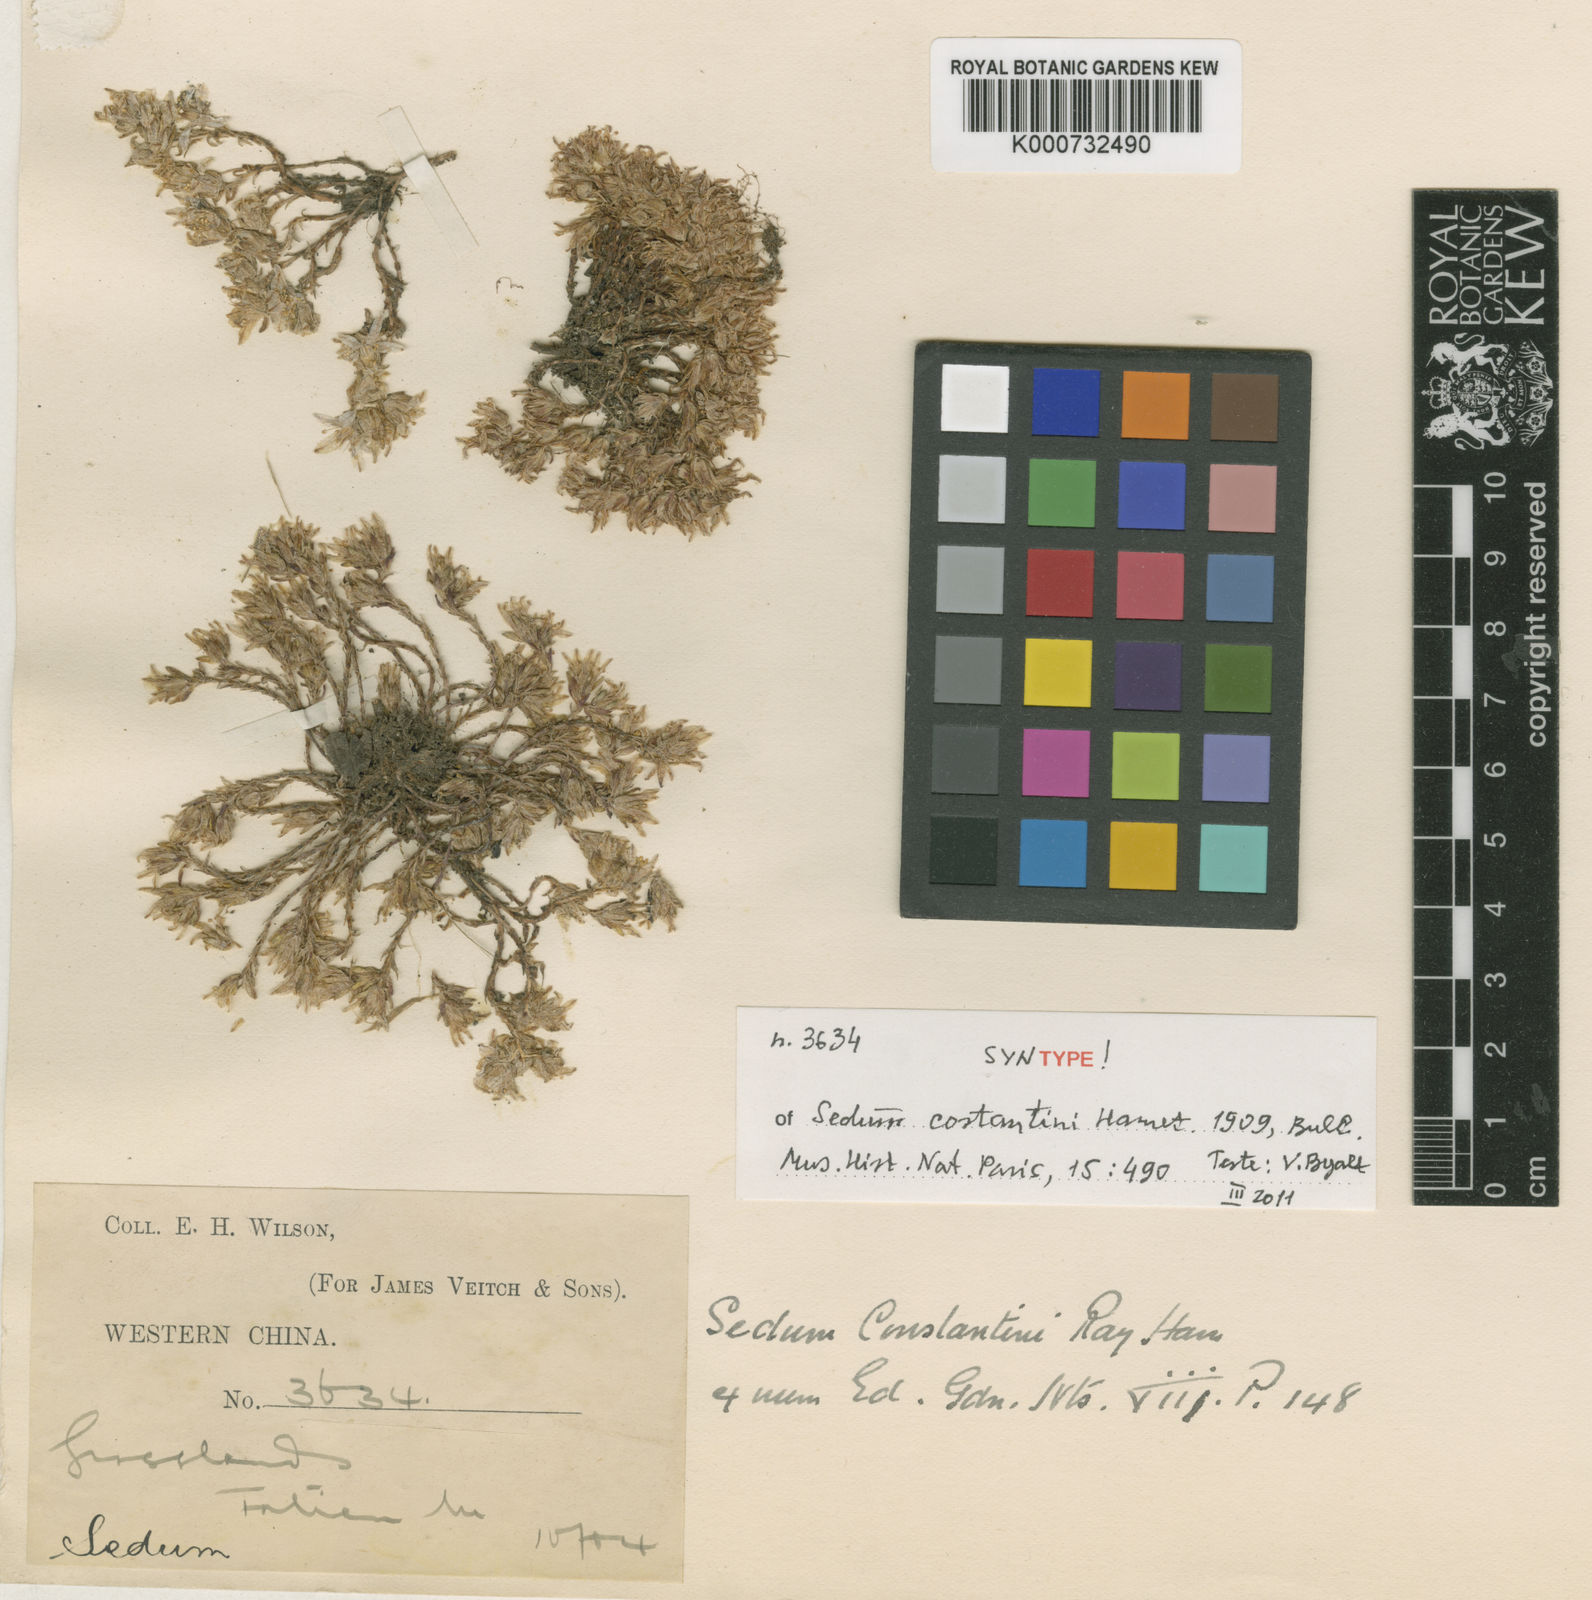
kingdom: Plantae
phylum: Tracheophyta
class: Magnoliopsida
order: Saxifragales
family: Crassulaceae
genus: Sedum
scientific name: Sedum
